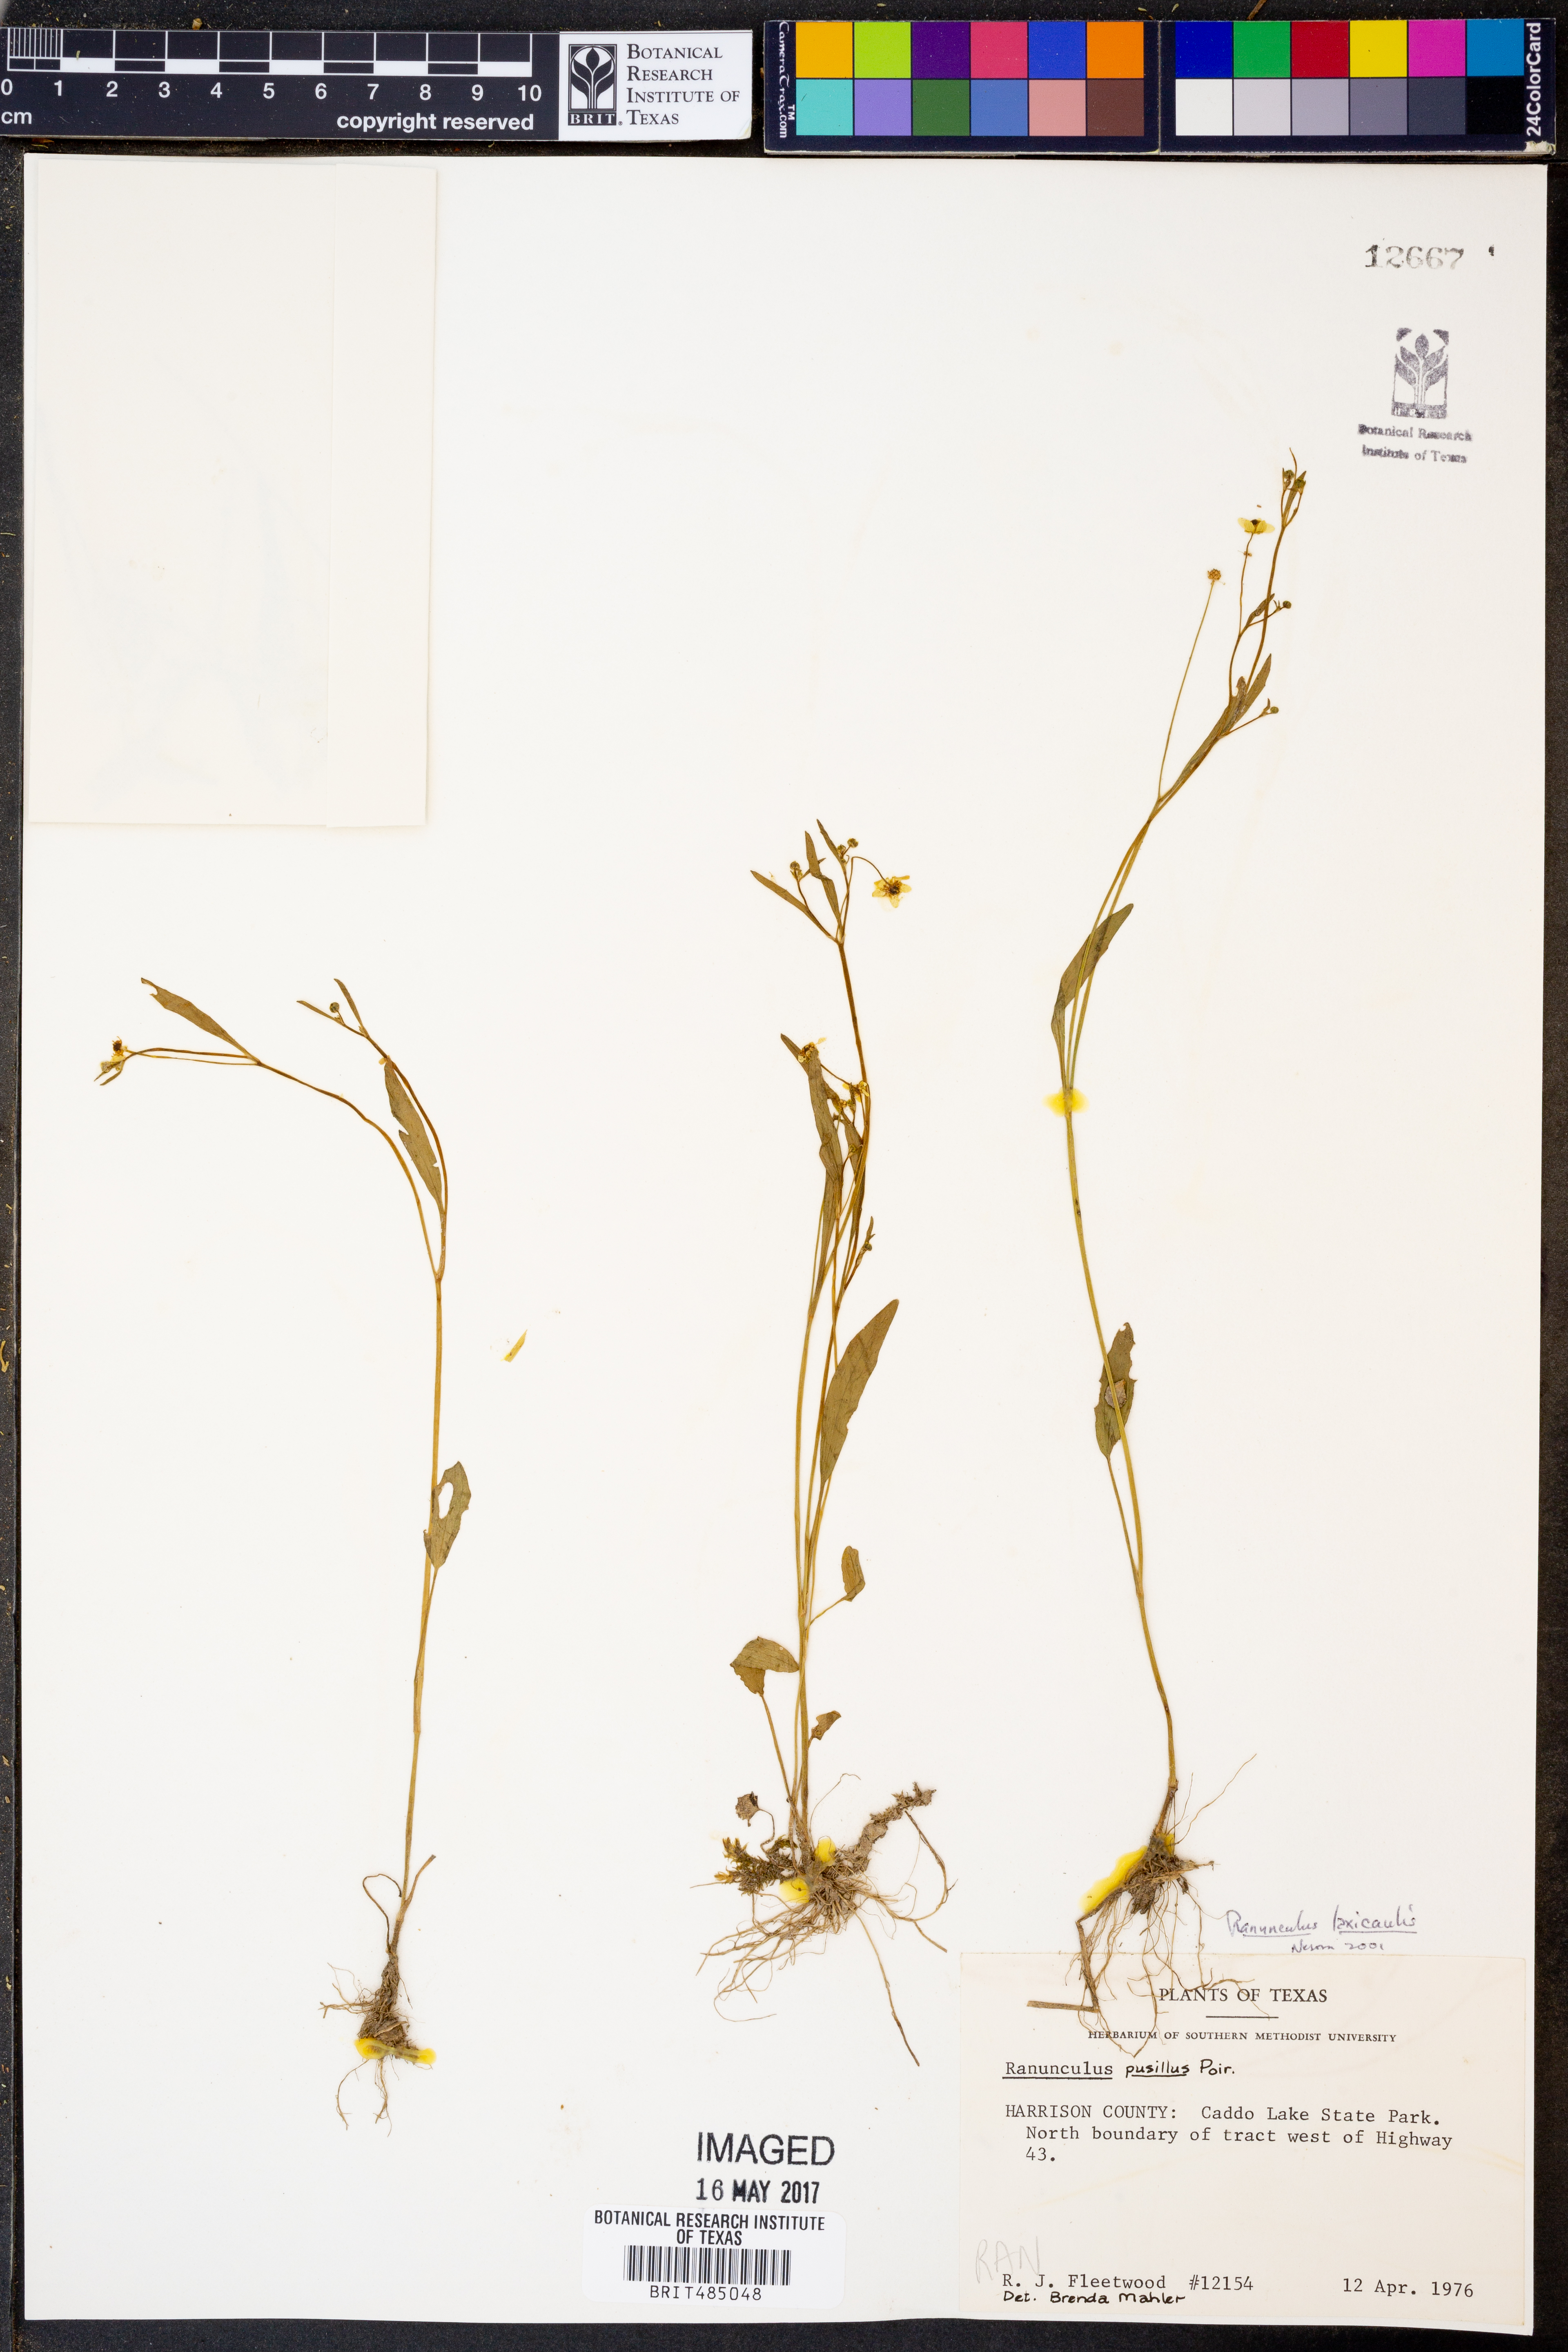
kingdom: Plantae
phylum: Tracheophyta
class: Magnoliopsida
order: Ranunculales
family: Ranunculaceae
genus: Ranunculus
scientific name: Ranunculus pusillus
